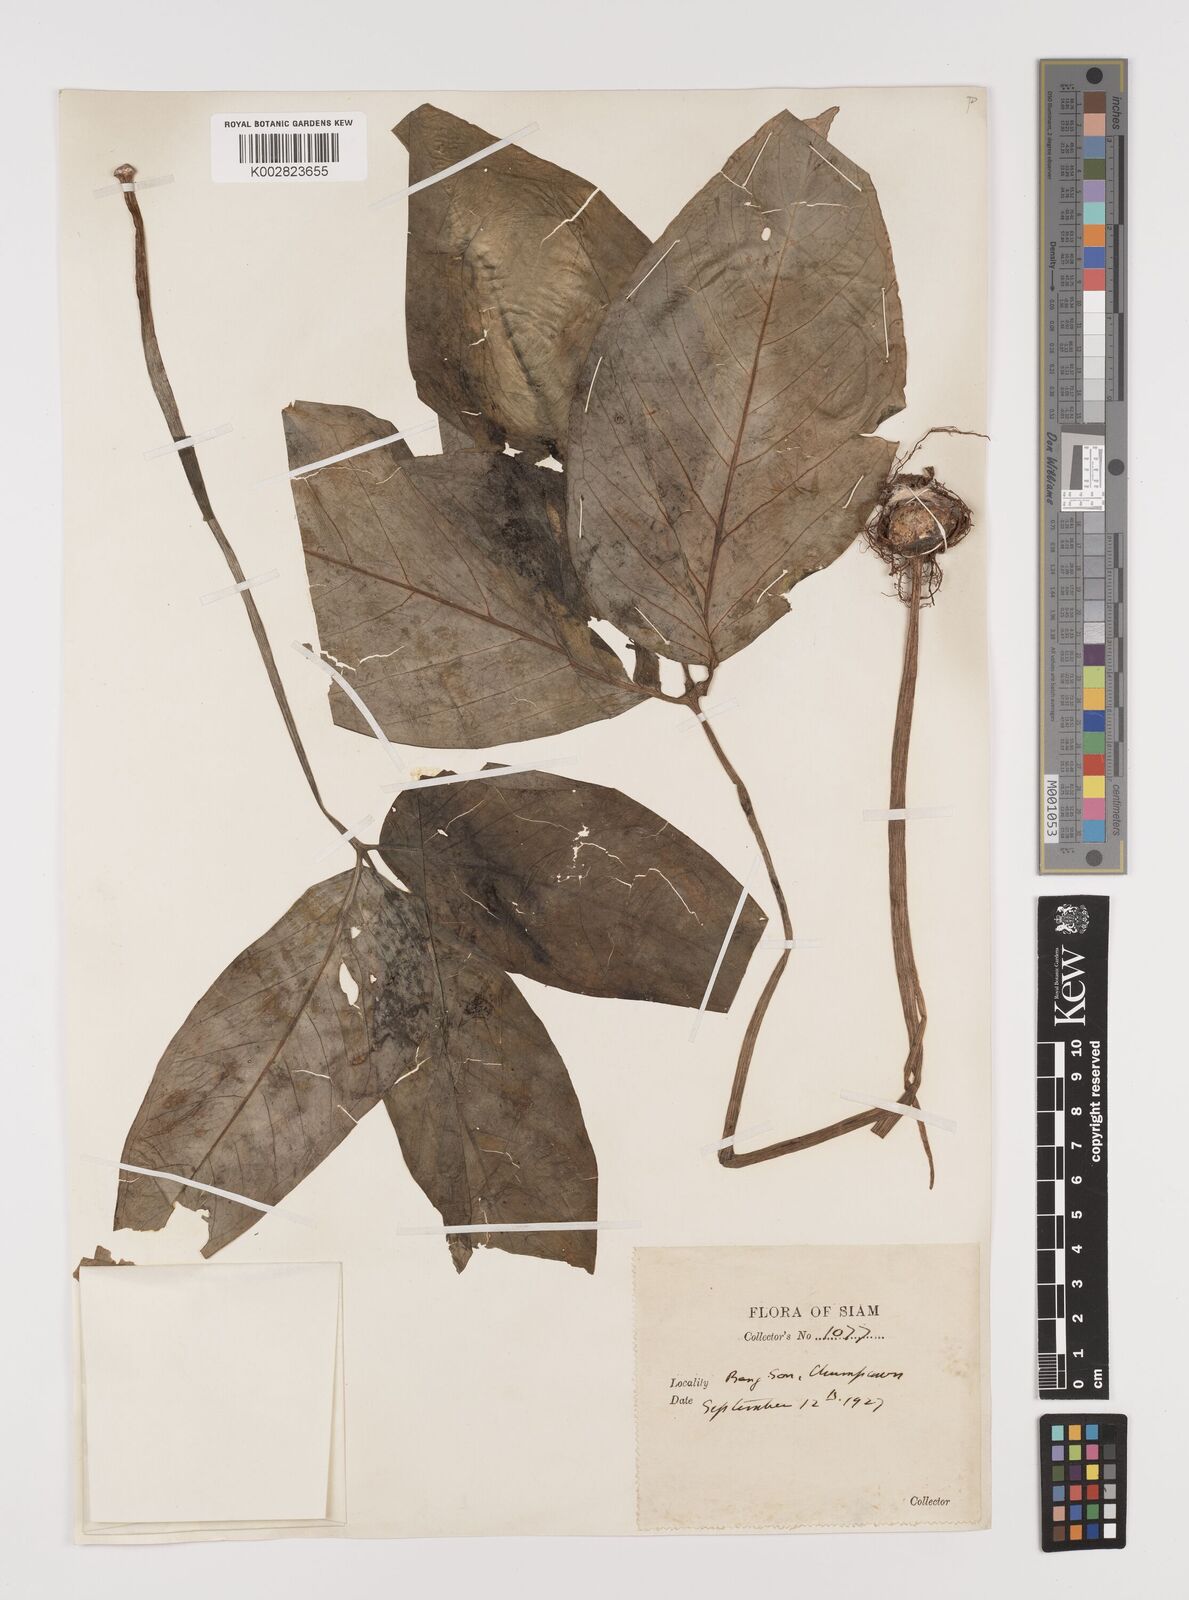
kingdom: Plantae
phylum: Tracheophyta
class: Liliopsida
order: Alismatales
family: Araceae
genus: Arisaema
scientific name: Arisaema
